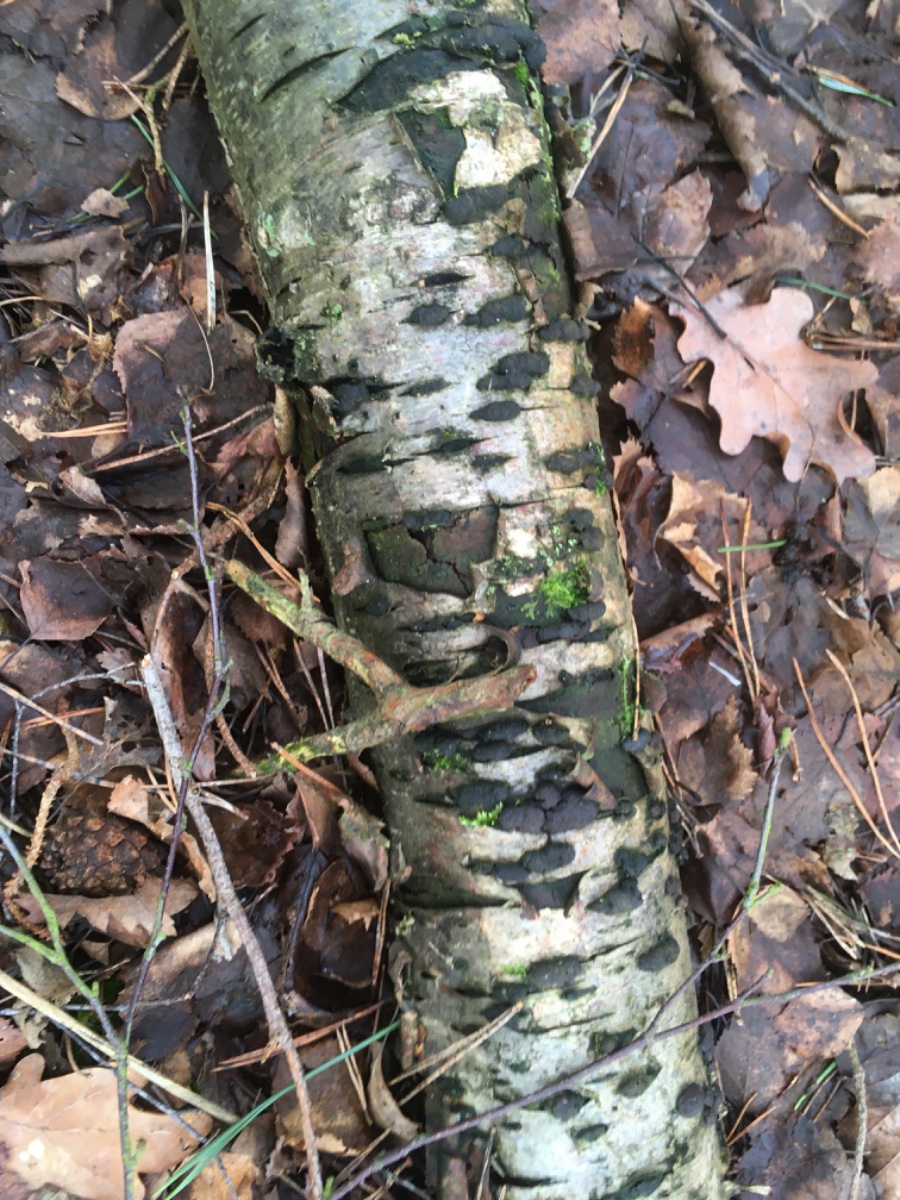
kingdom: Fungi
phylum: Ascomycota
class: Sordariomycetes
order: Xylariales
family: Hypoxylaceae
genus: Jackrogersella
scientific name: Jackrogersella multiformis
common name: foranderlig kulbær
